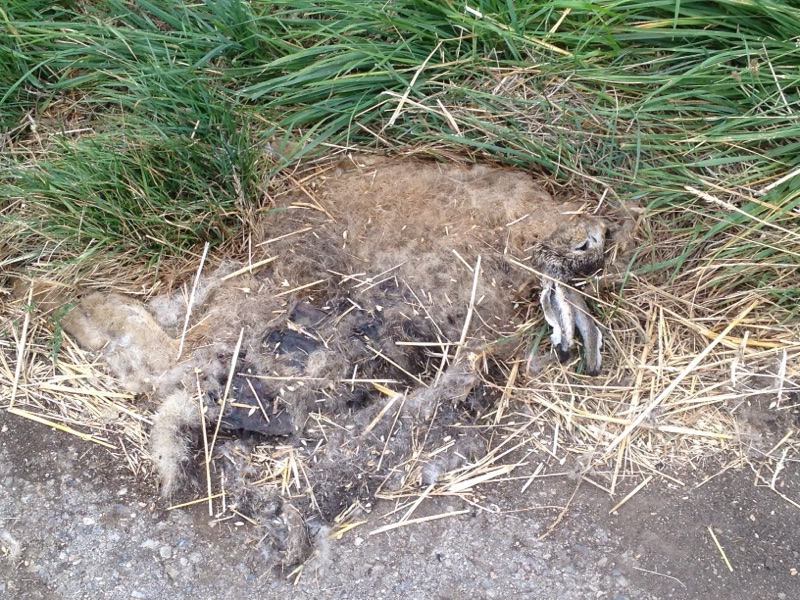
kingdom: Animalia
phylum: Chordata
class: Mammalia
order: Lagomorpha
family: Leporidae
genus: Lepus
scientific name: Lepus europaeus
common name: European hare
